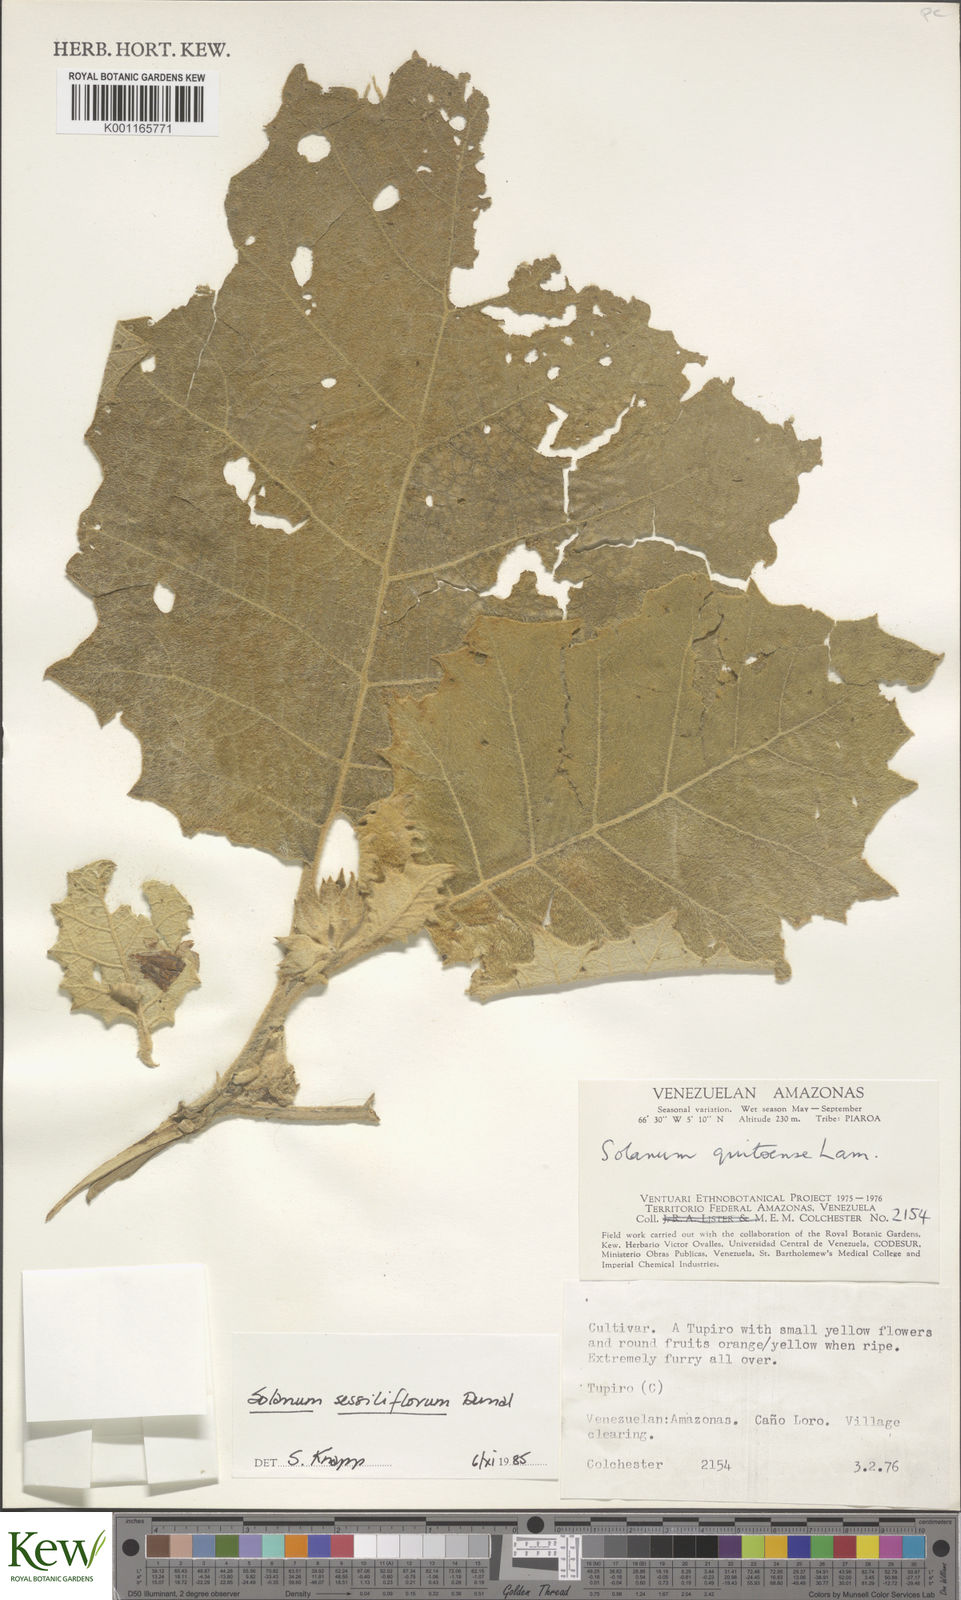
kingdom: Plantae
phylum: Tracheophyta
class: Magnoliopsida
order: Solanales
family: Solanaceae
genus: Solanum
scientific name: Solanum sessiliflorum
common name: Orinoco-apple
